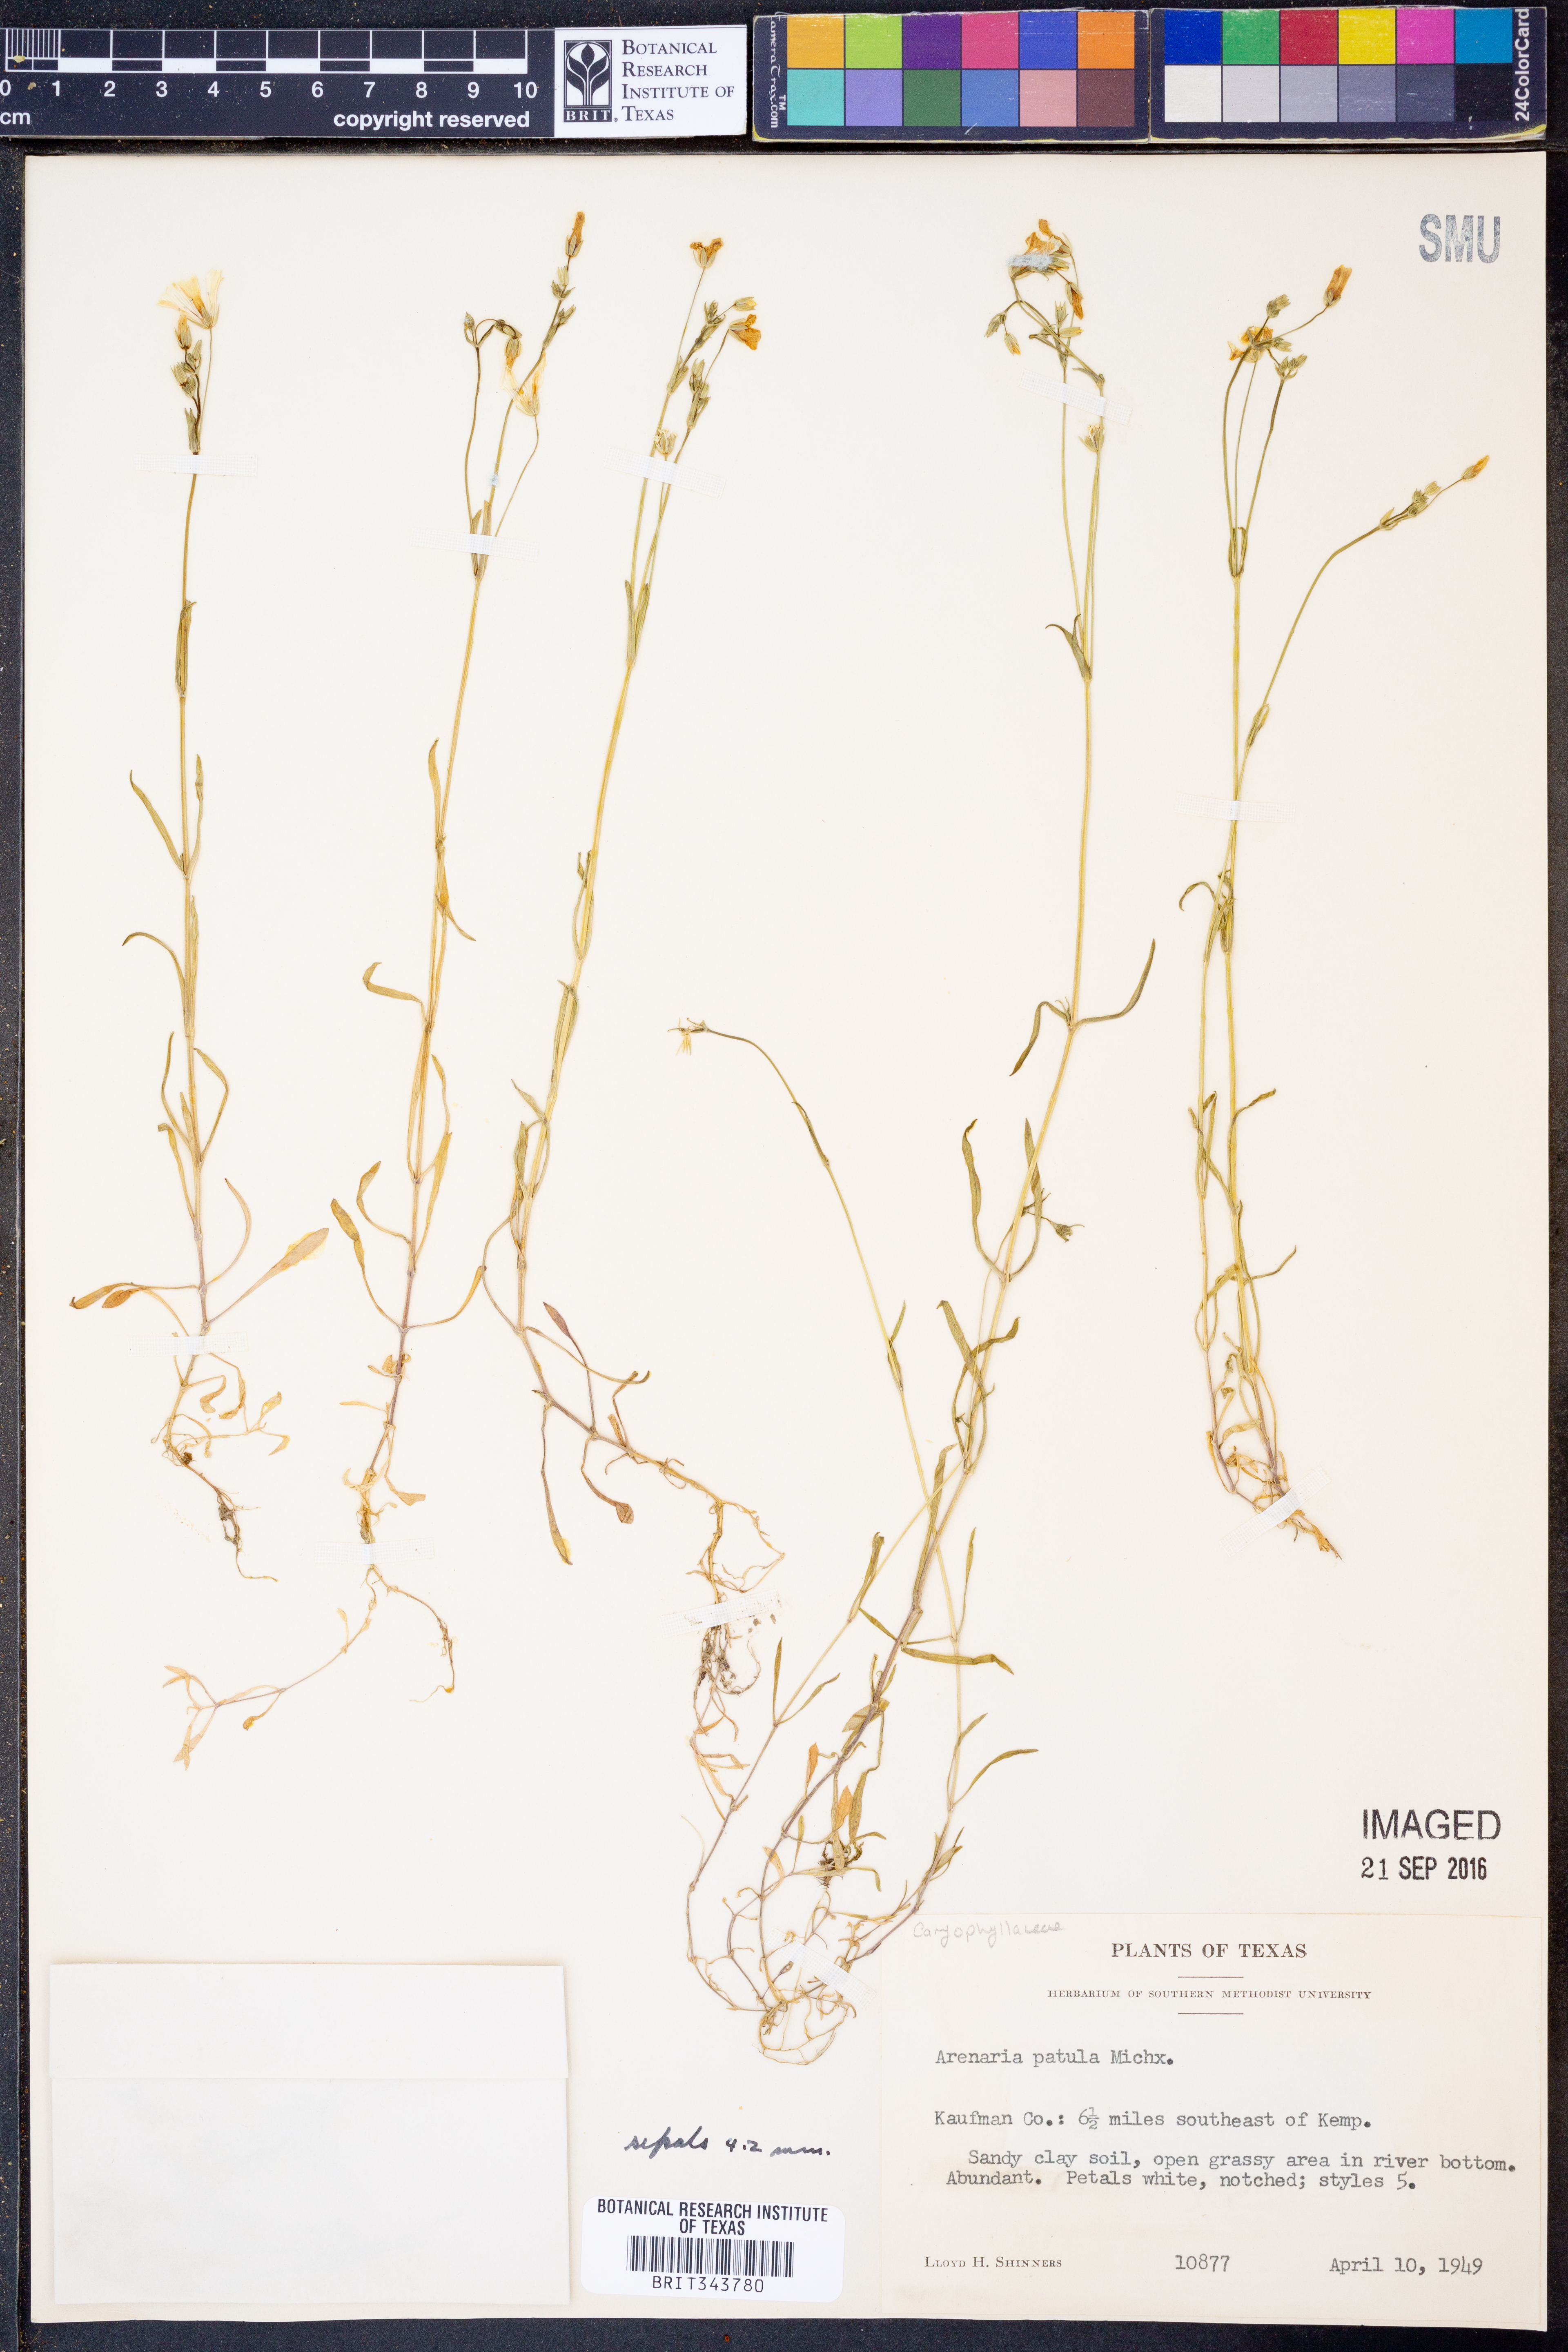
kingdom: Plantae
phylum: Tracheophyta
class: Magnoliopsida
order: Caryophyllales
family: Caryophyllaceae
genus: Mononeuria
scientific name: Mononeuria patula
